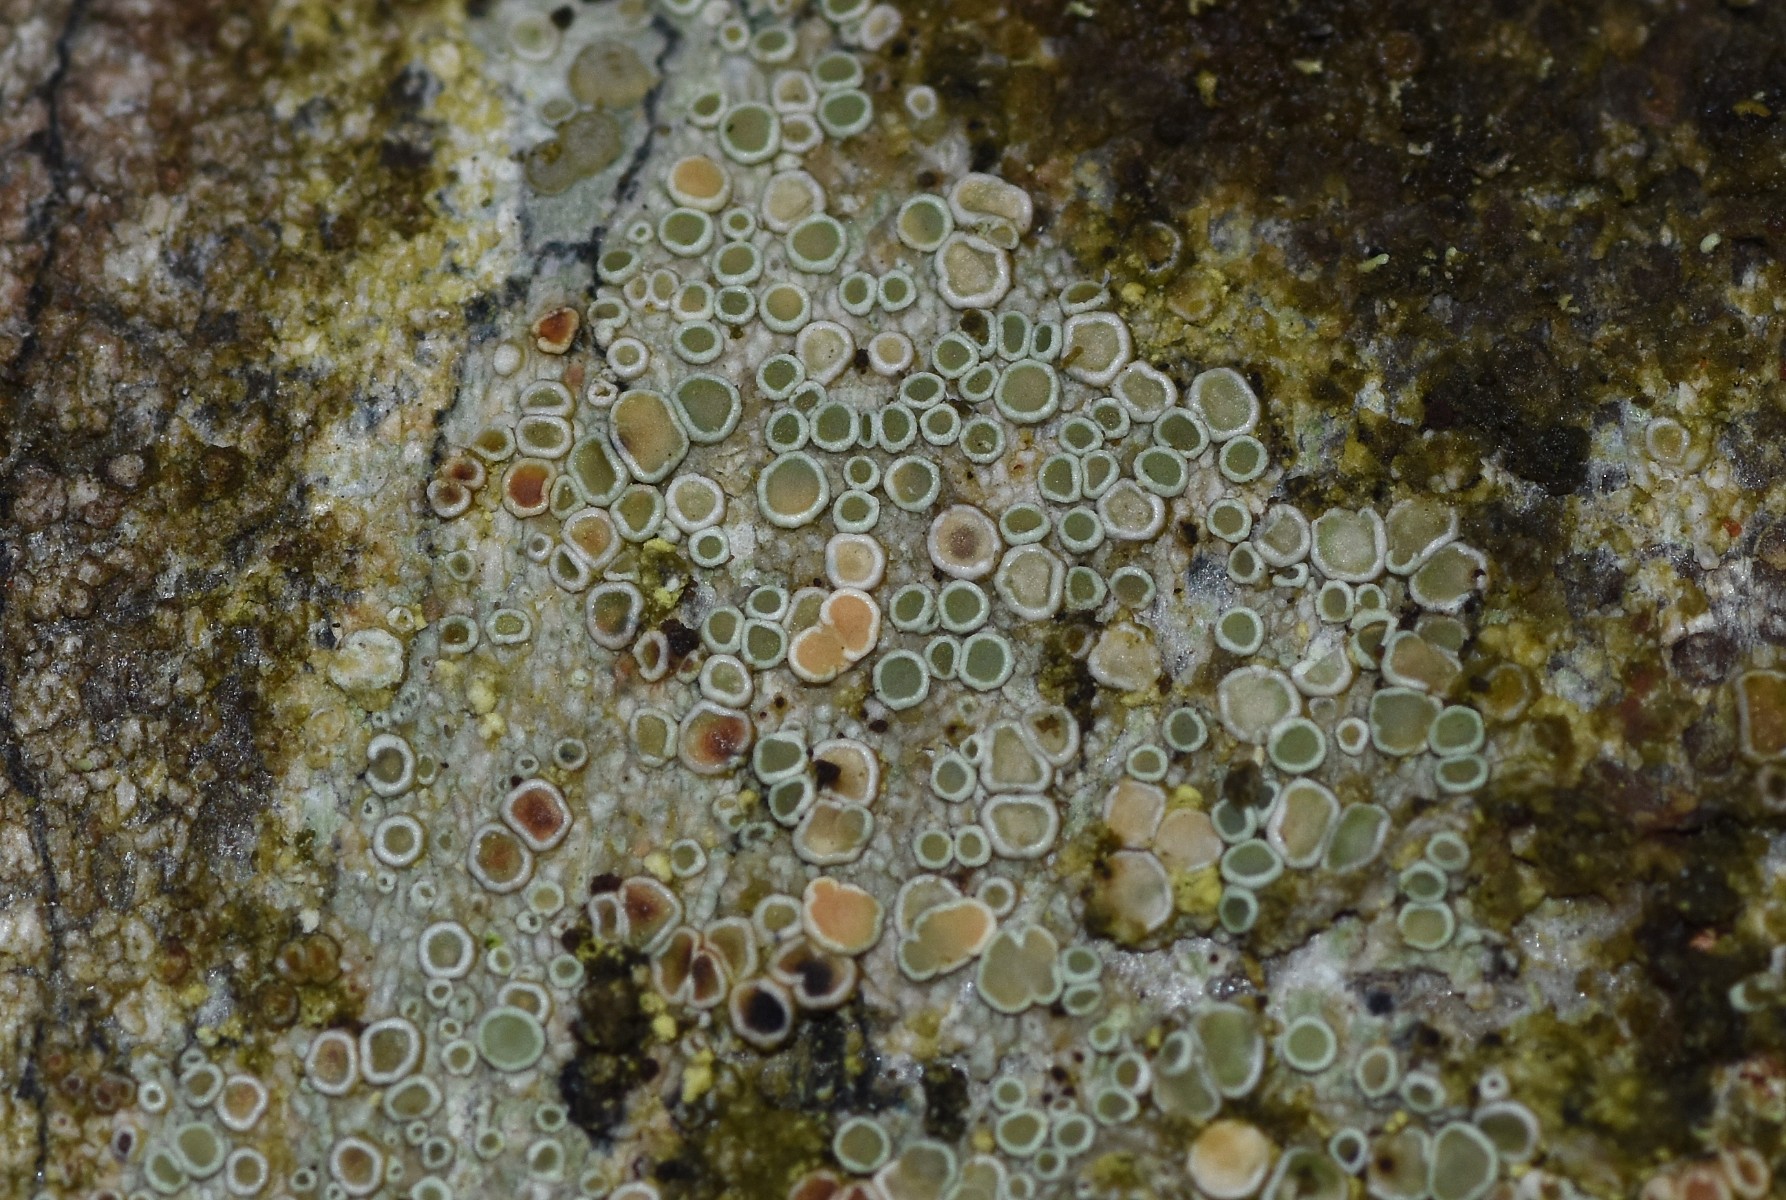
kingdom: Fungi
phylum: Ascomycota
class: Lecanoromycetes
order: Lecanorales
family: Lecanoraceae
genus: Lecanora
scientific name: Lecanora chlarotera
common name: brun kantskivelav
